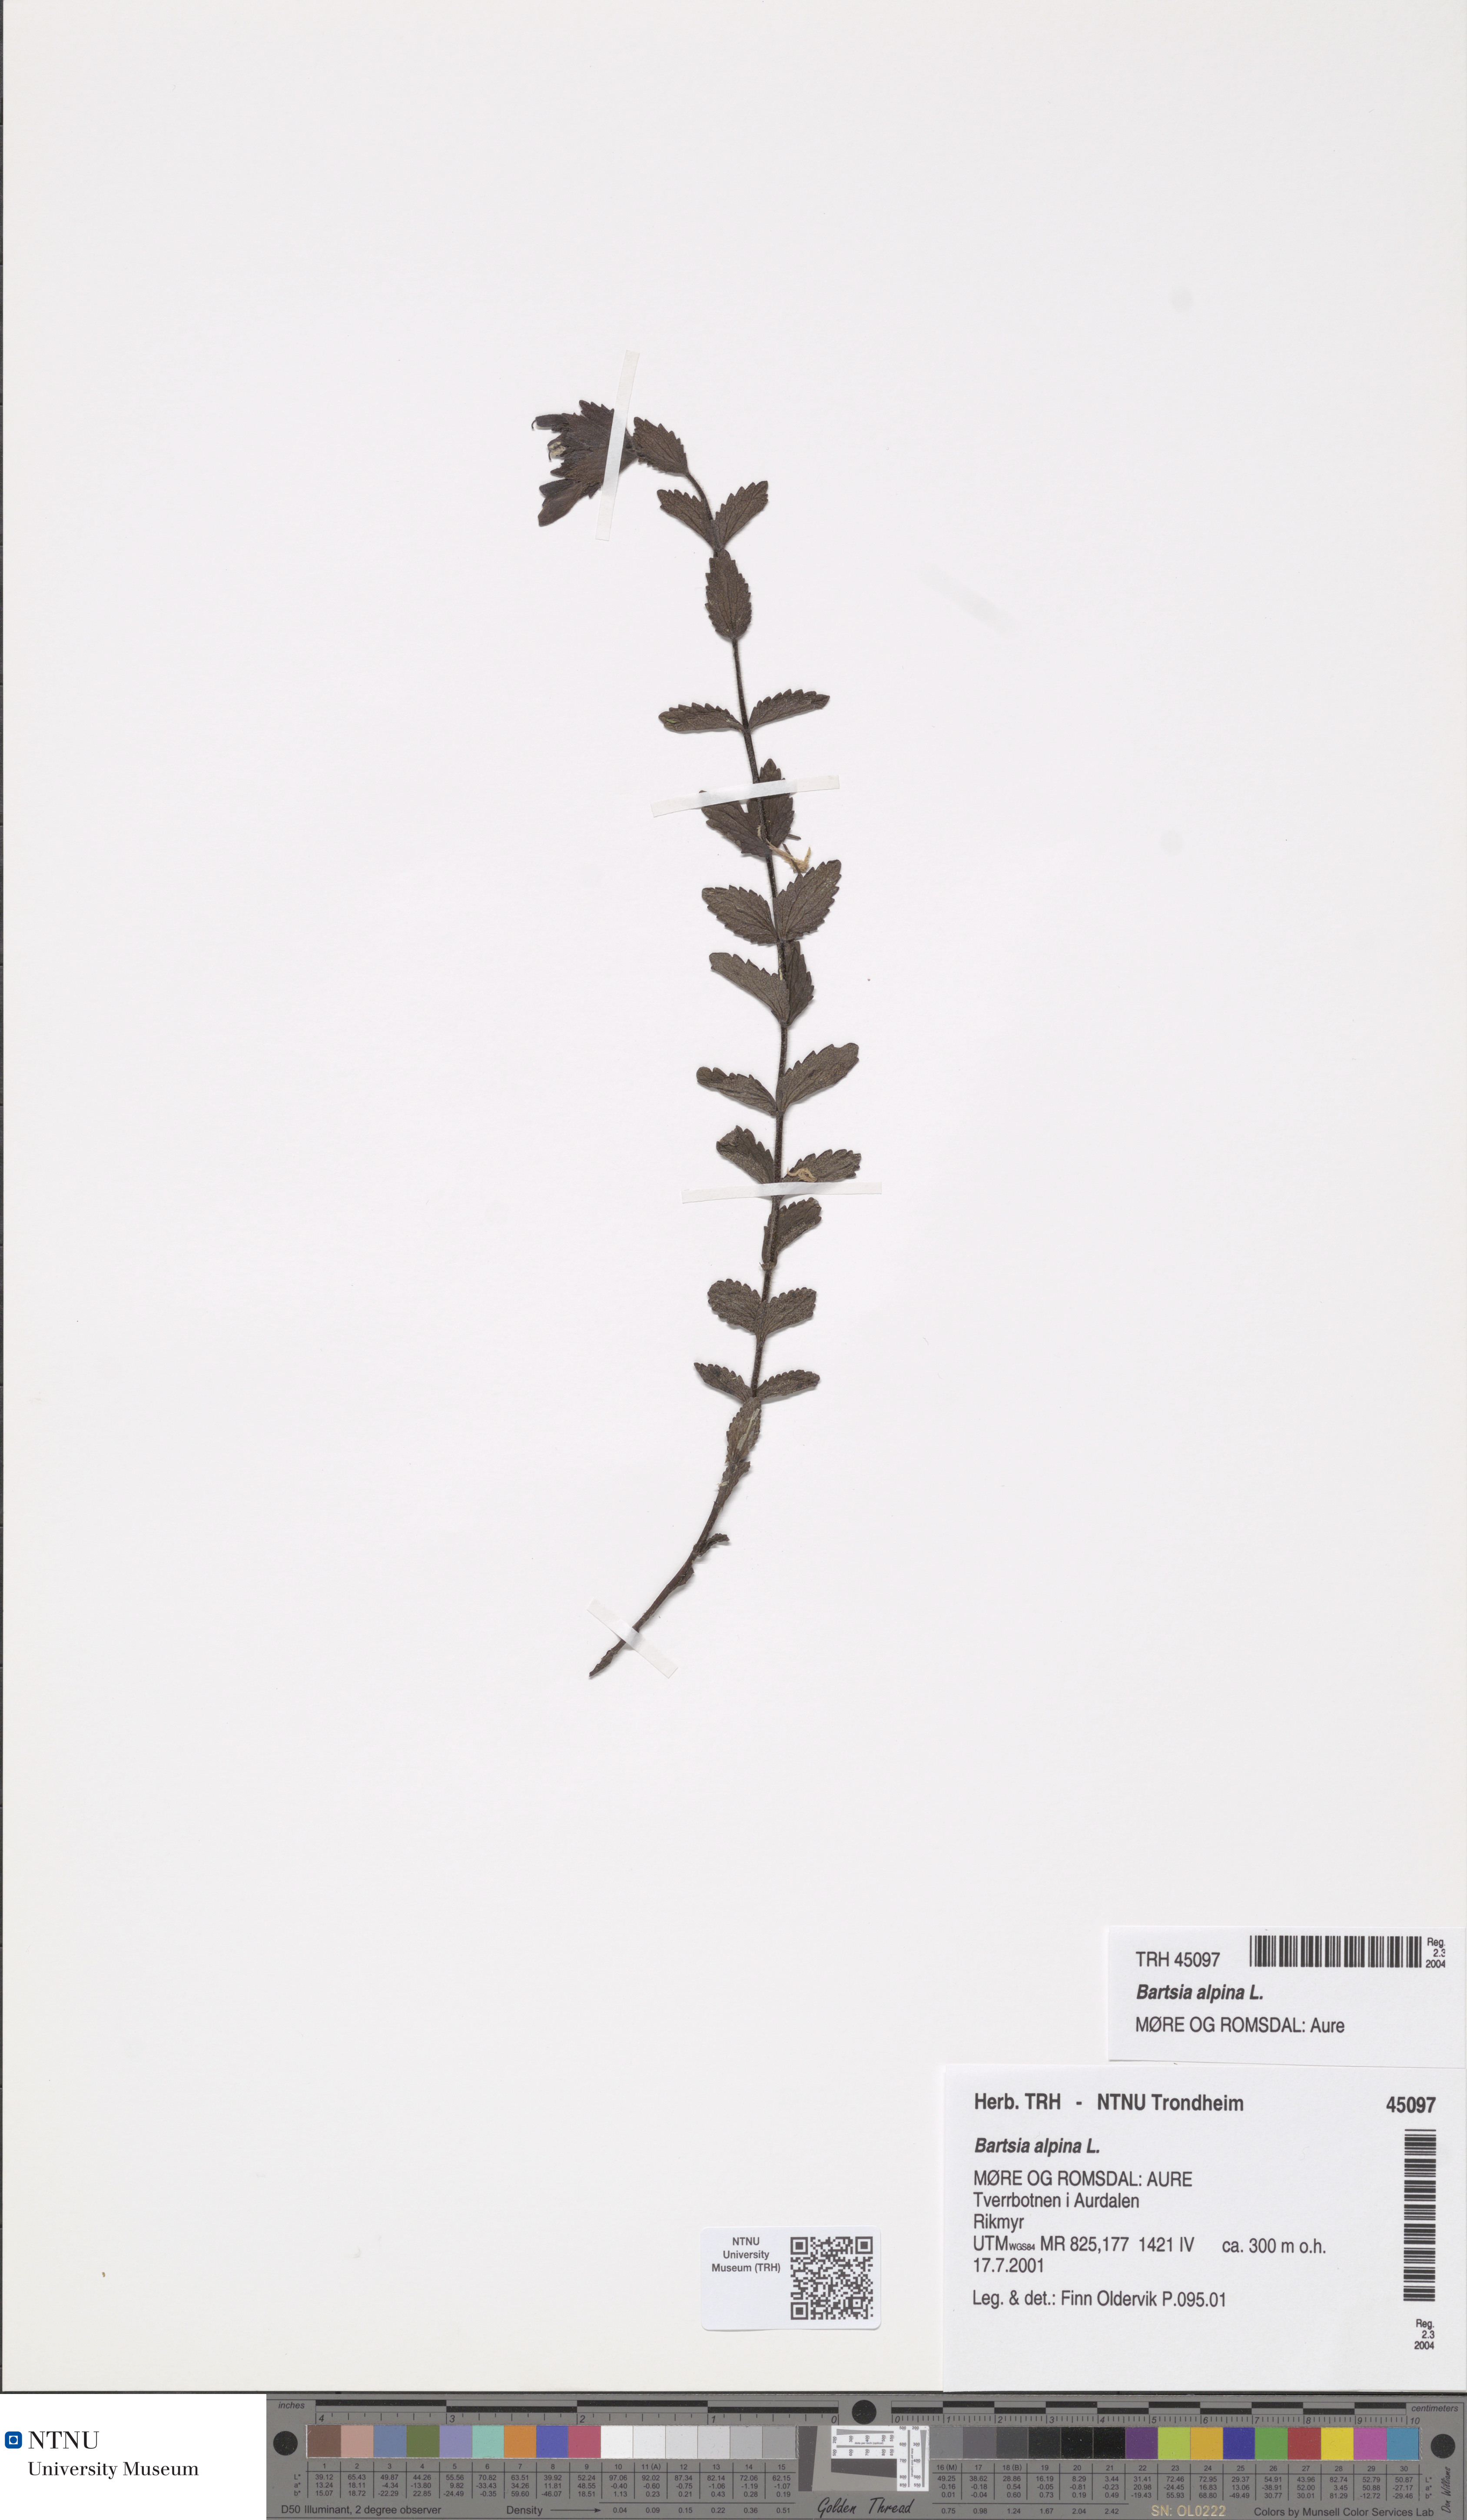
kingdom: Plantae
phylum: Tracheophyta
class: Magnoliopsida
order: Lamiales
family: Orobanchaceae
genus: Bartsia
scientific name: Bartsia alpina
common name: Alpine bartsia
